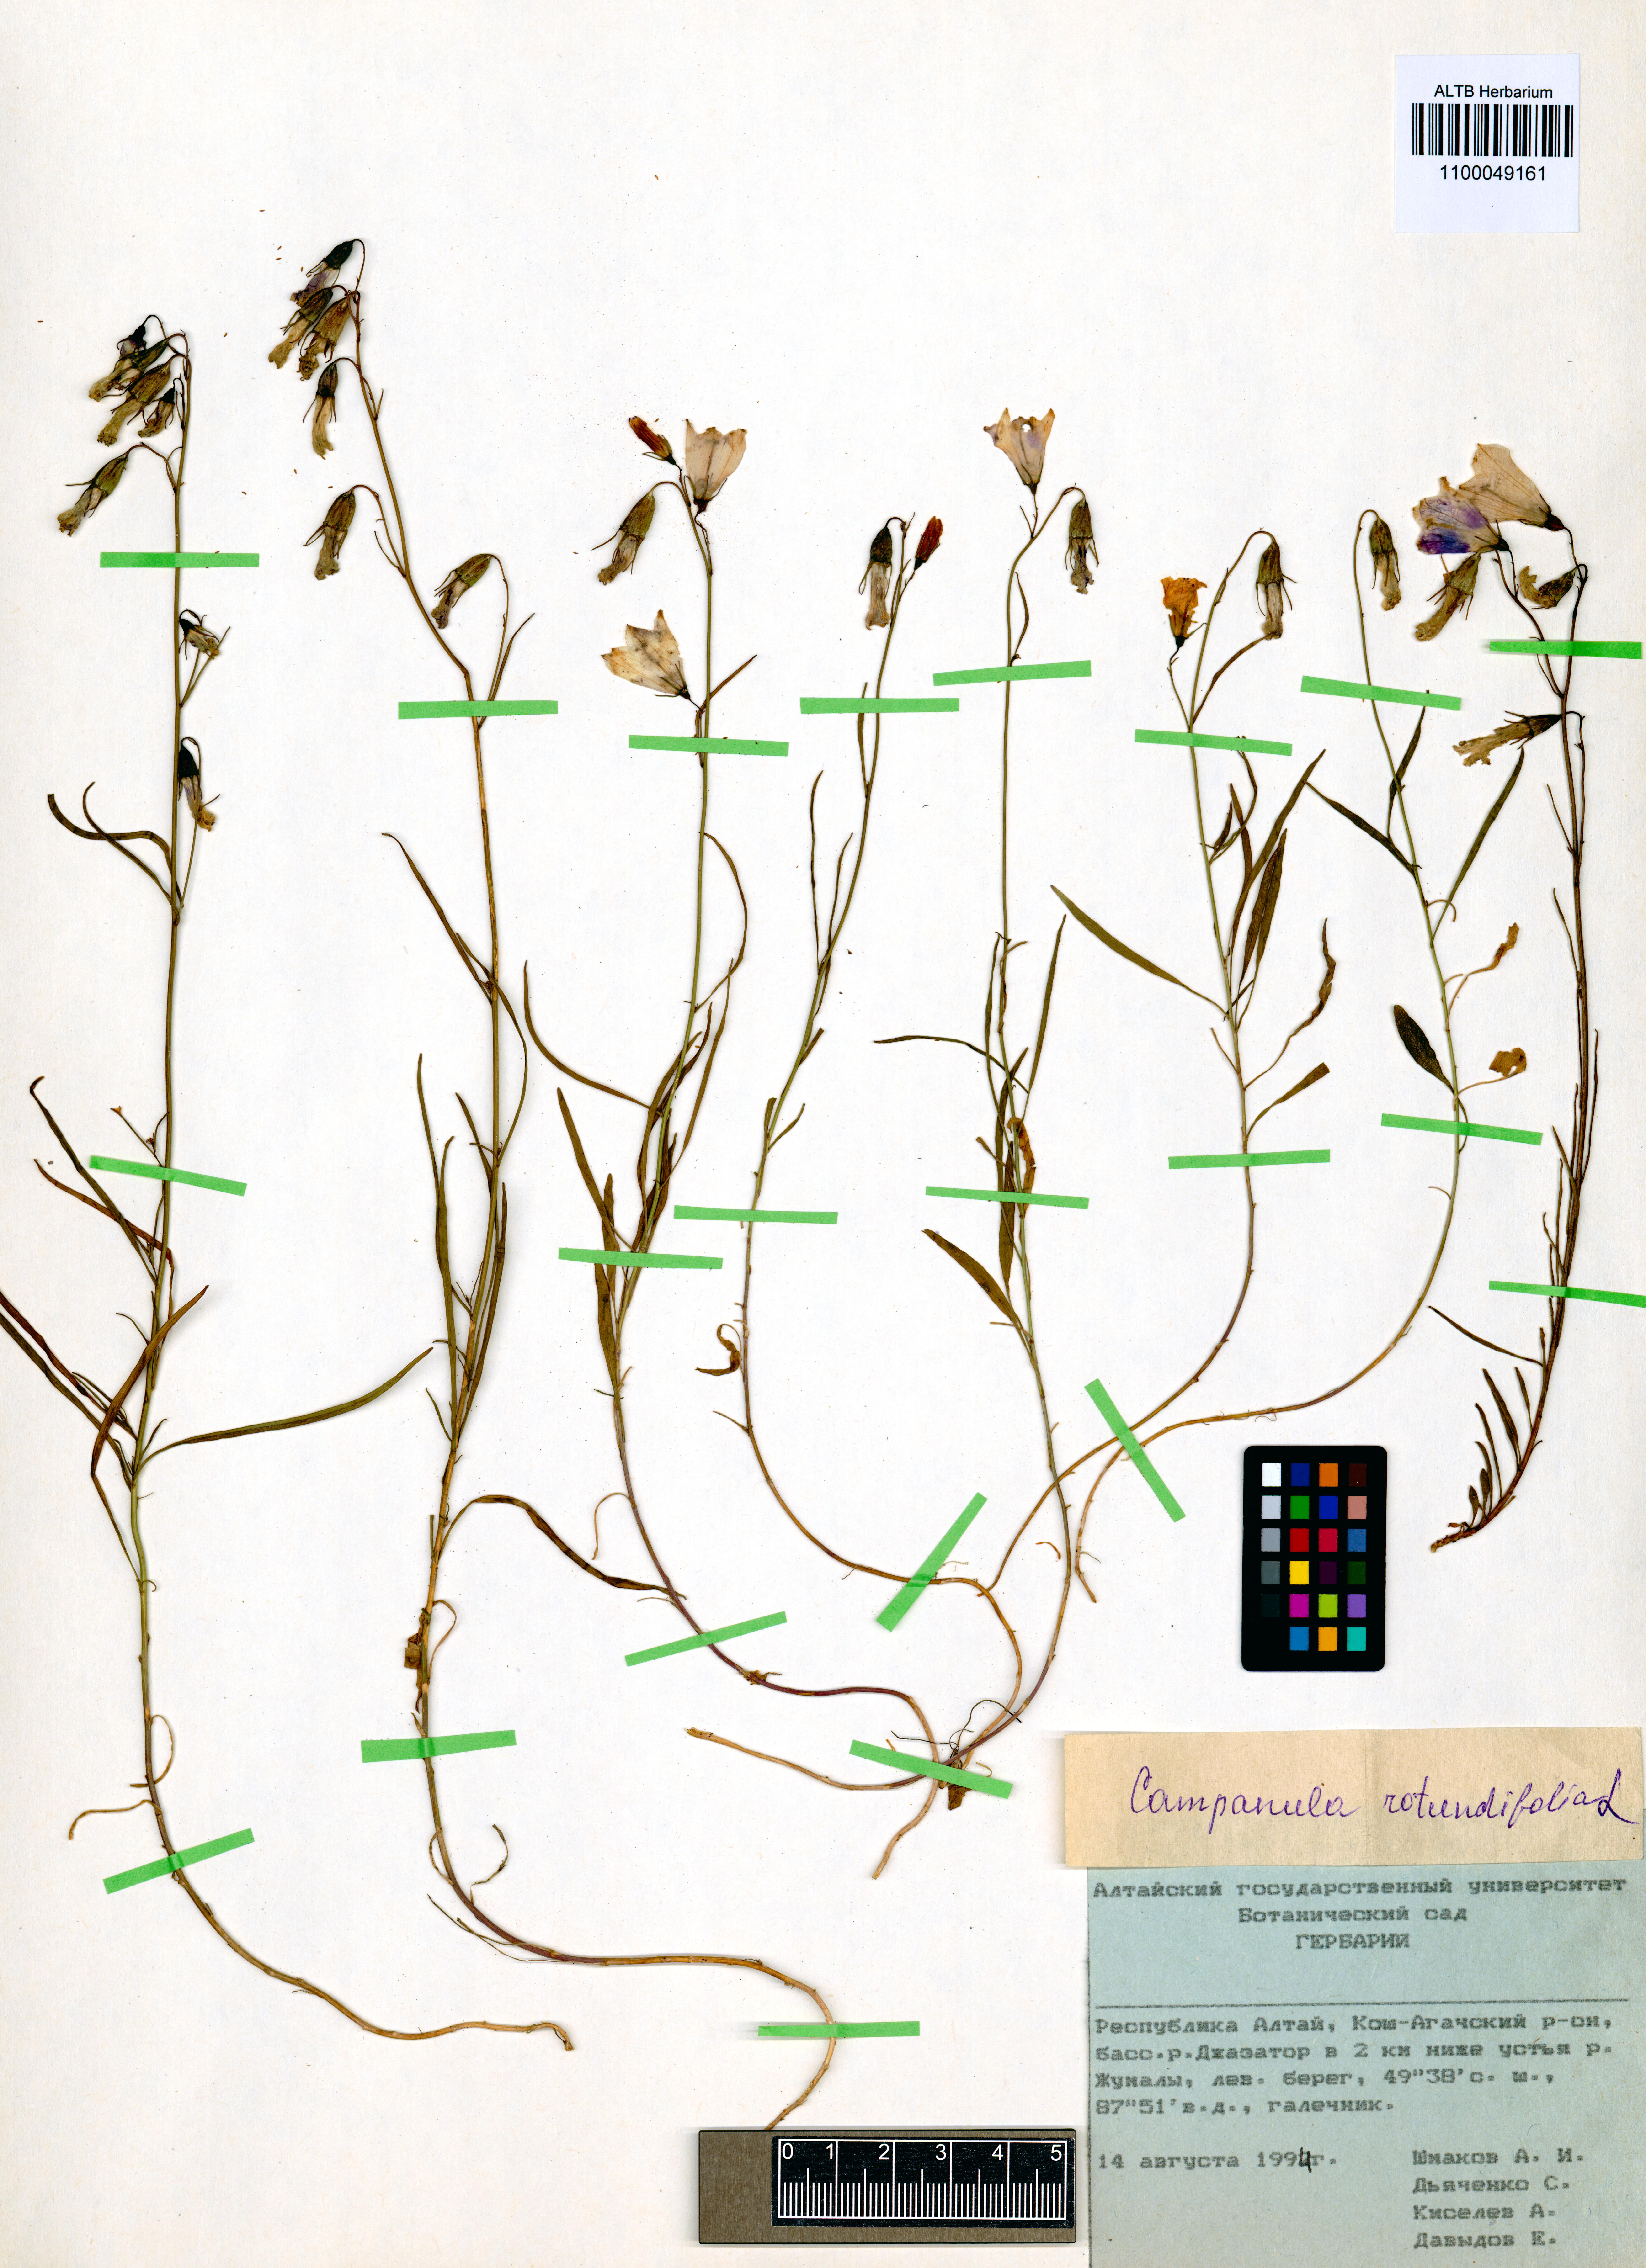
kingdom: Plantae
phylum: Tracheophyta
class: Magnoliopsida
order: Asterales
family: Campanulaceae
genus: Campanula
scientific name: Campanula rotundifolia
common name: Harebell
